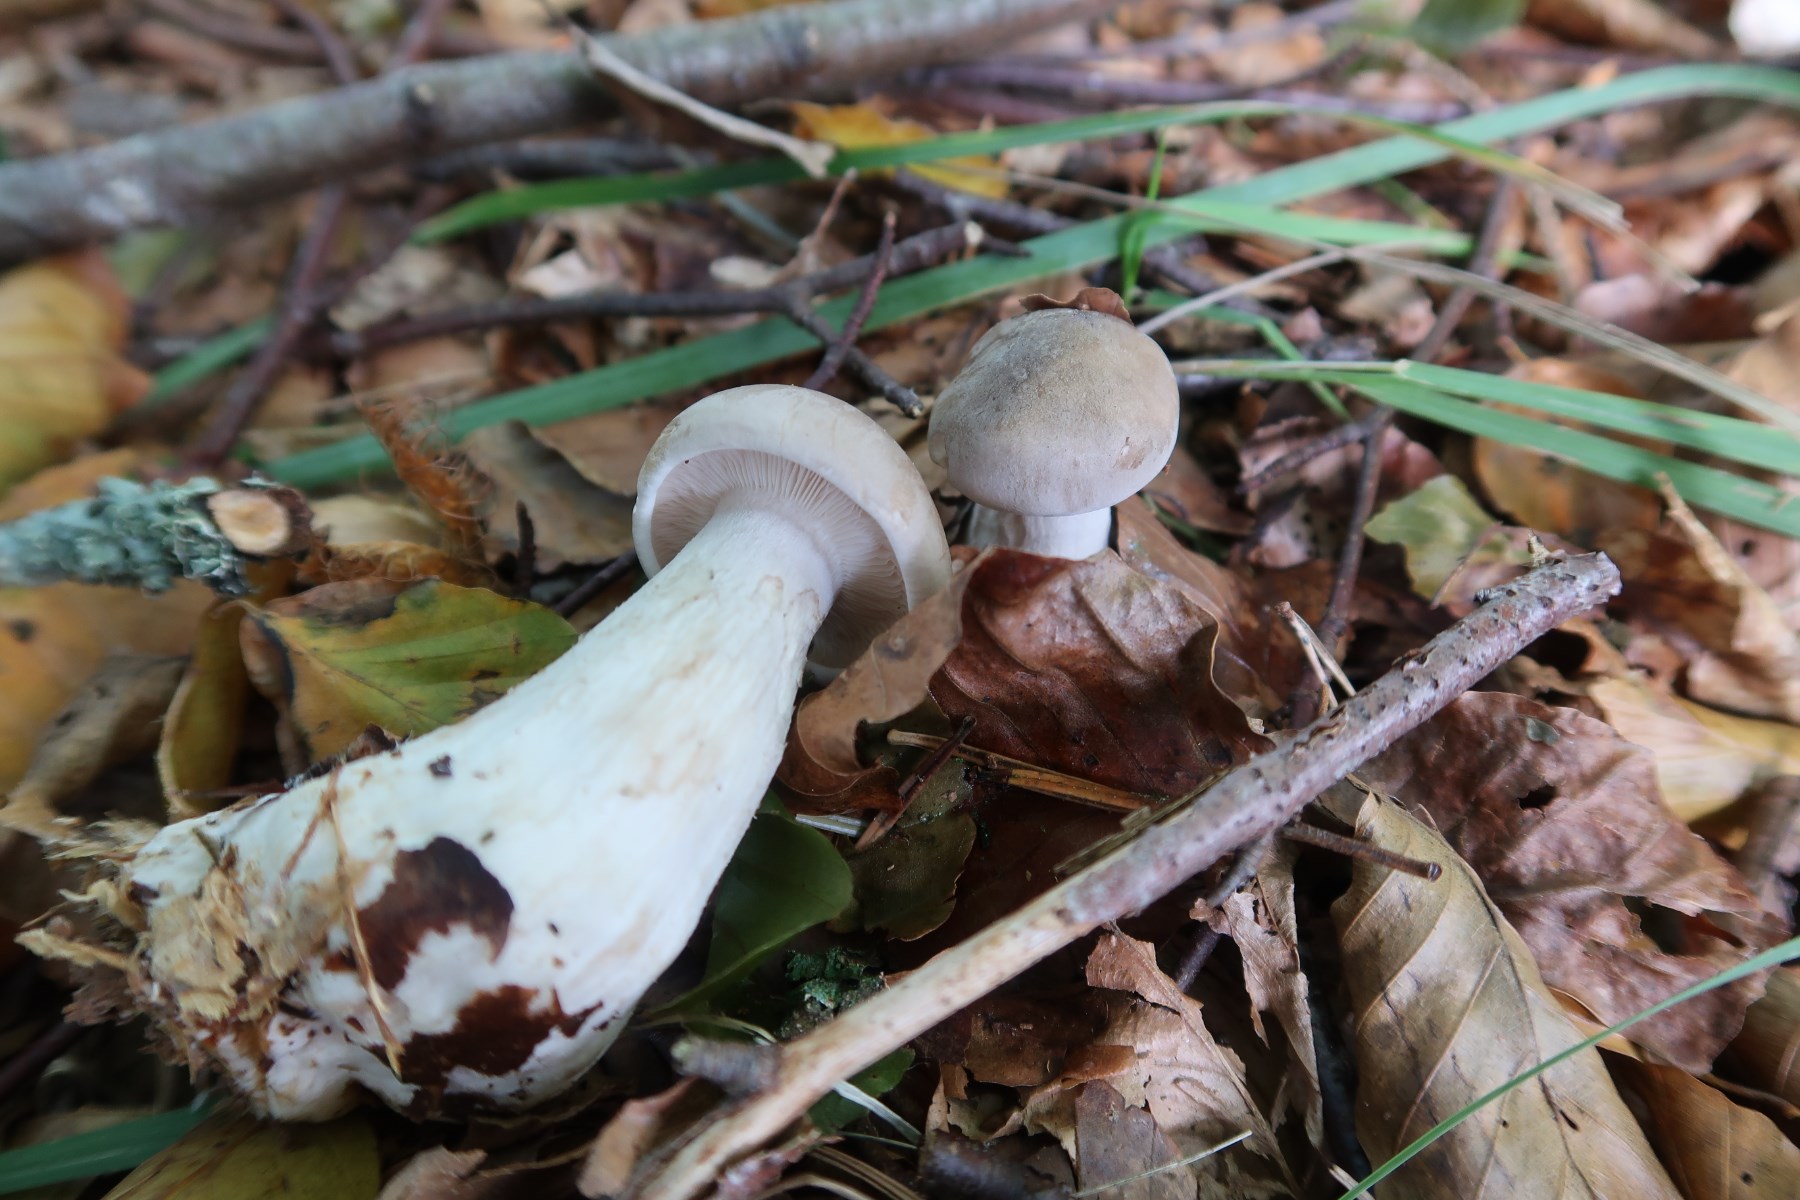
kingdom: Fungi
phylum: Basidiomycota
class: Agaricomycetes
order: Agaricales
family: Tricholomataceae
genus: Clitocybe
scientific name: Clitocybe nebularis
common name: tåge-tragthat
